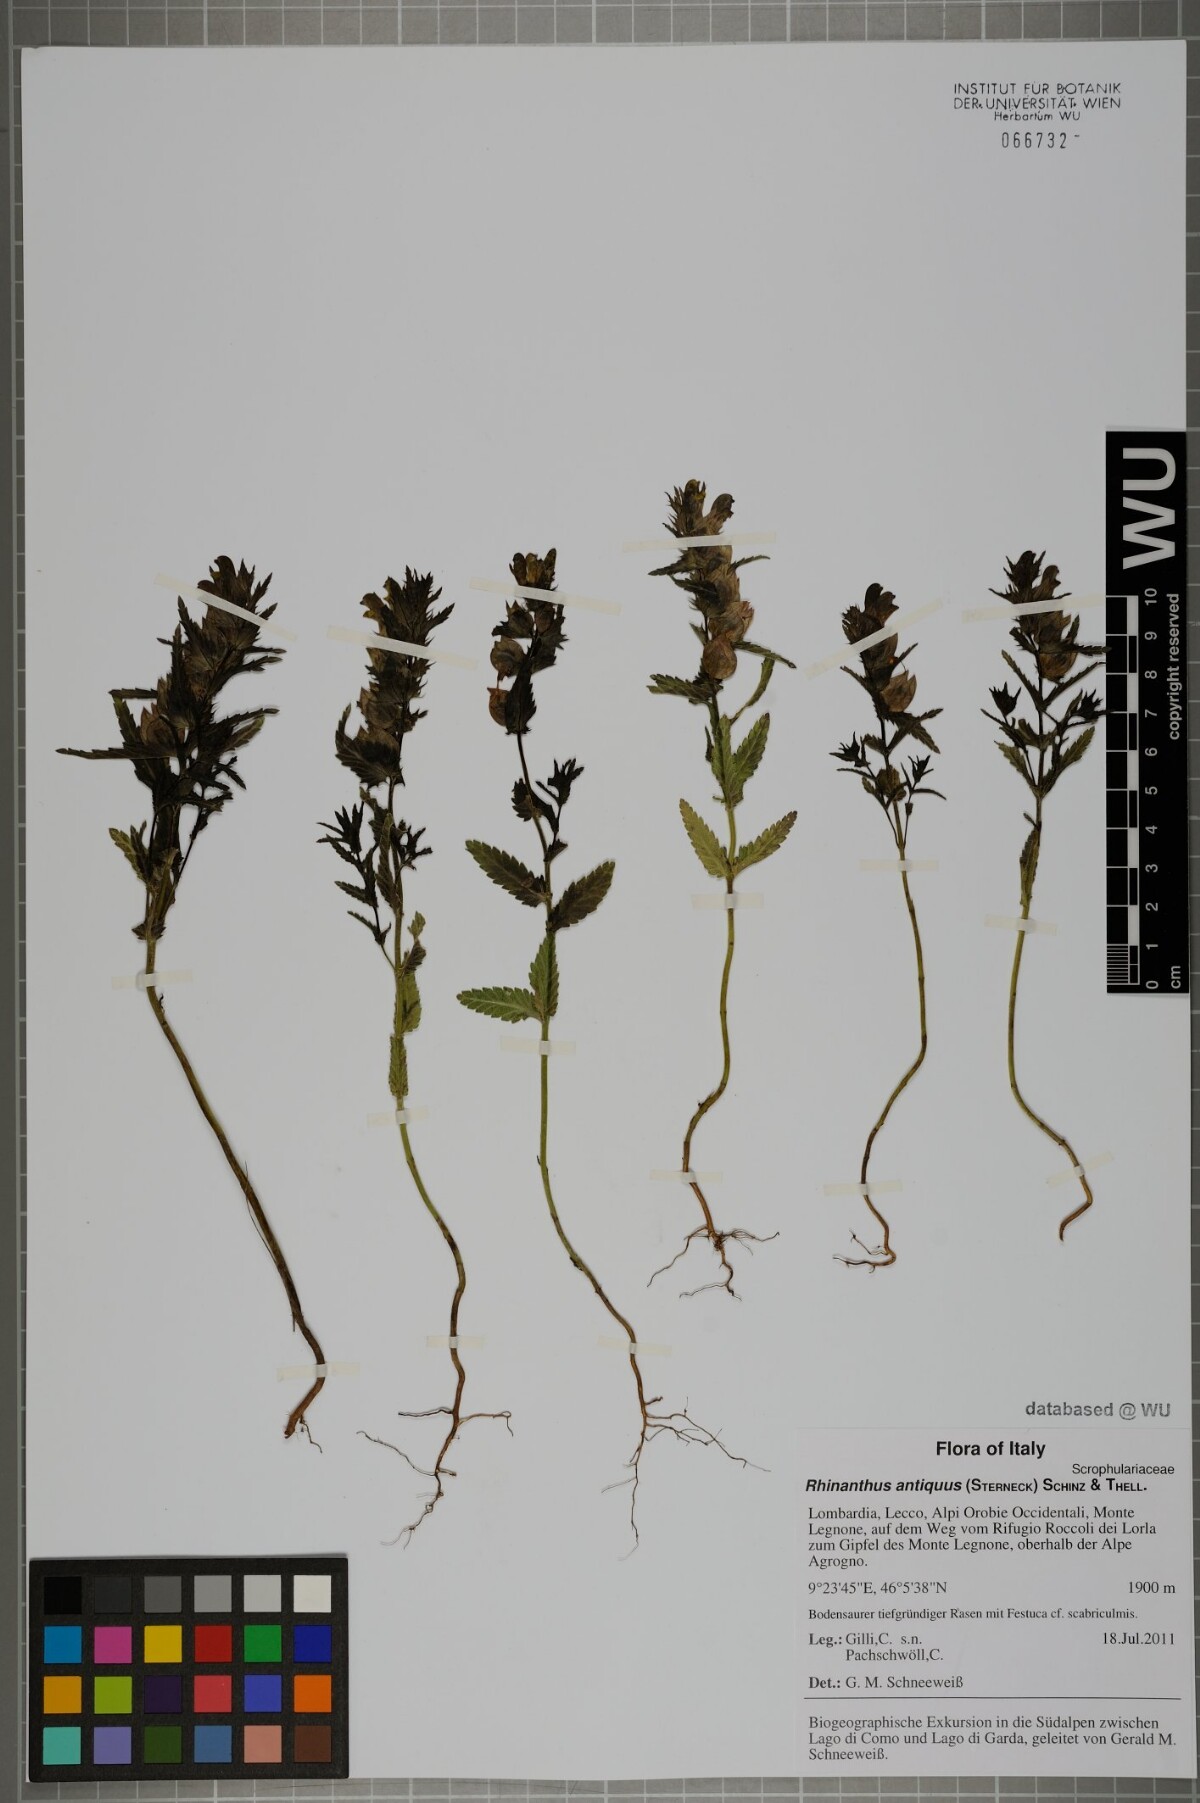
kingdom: Plantae
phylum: Tracheophyta
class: Magnoliopsida
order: Lamiales
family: Orobanchaceae
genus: Rhinanthus
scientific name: Rhinanthus antiquus
